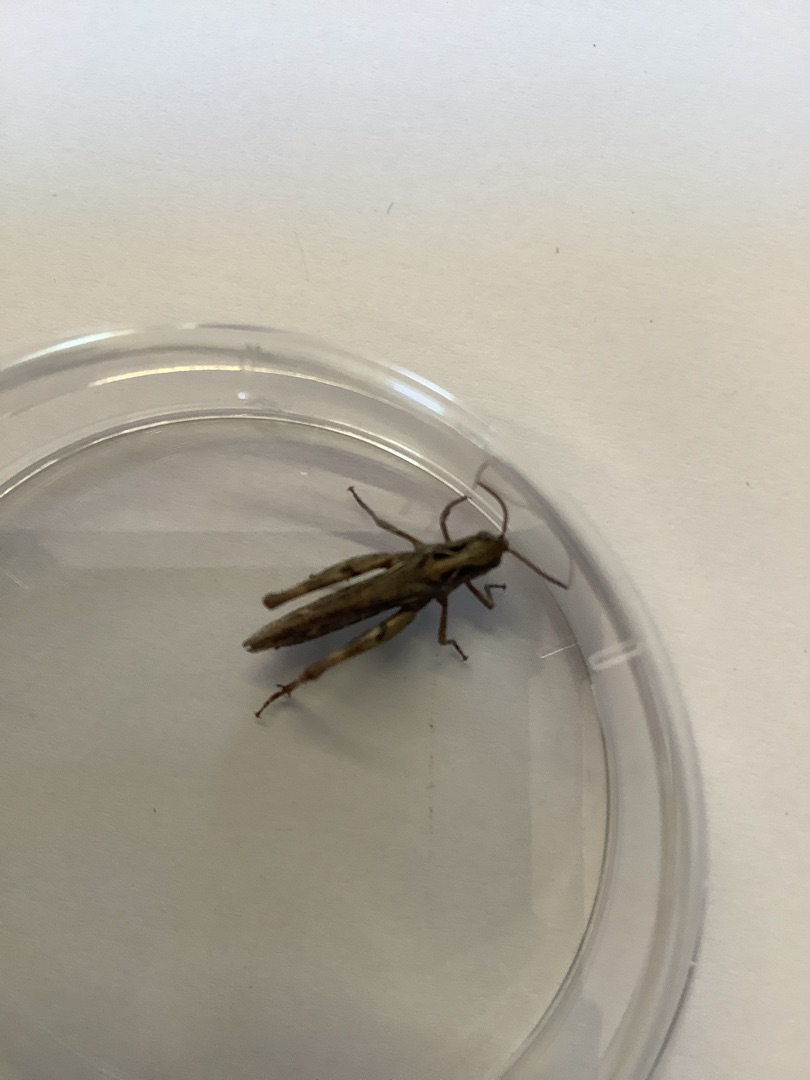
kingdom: Animalia
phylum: Arthropoda
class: Insecta
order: Orthoptera
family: Acrididae
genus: Chorthippus
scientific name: Chorthippus
